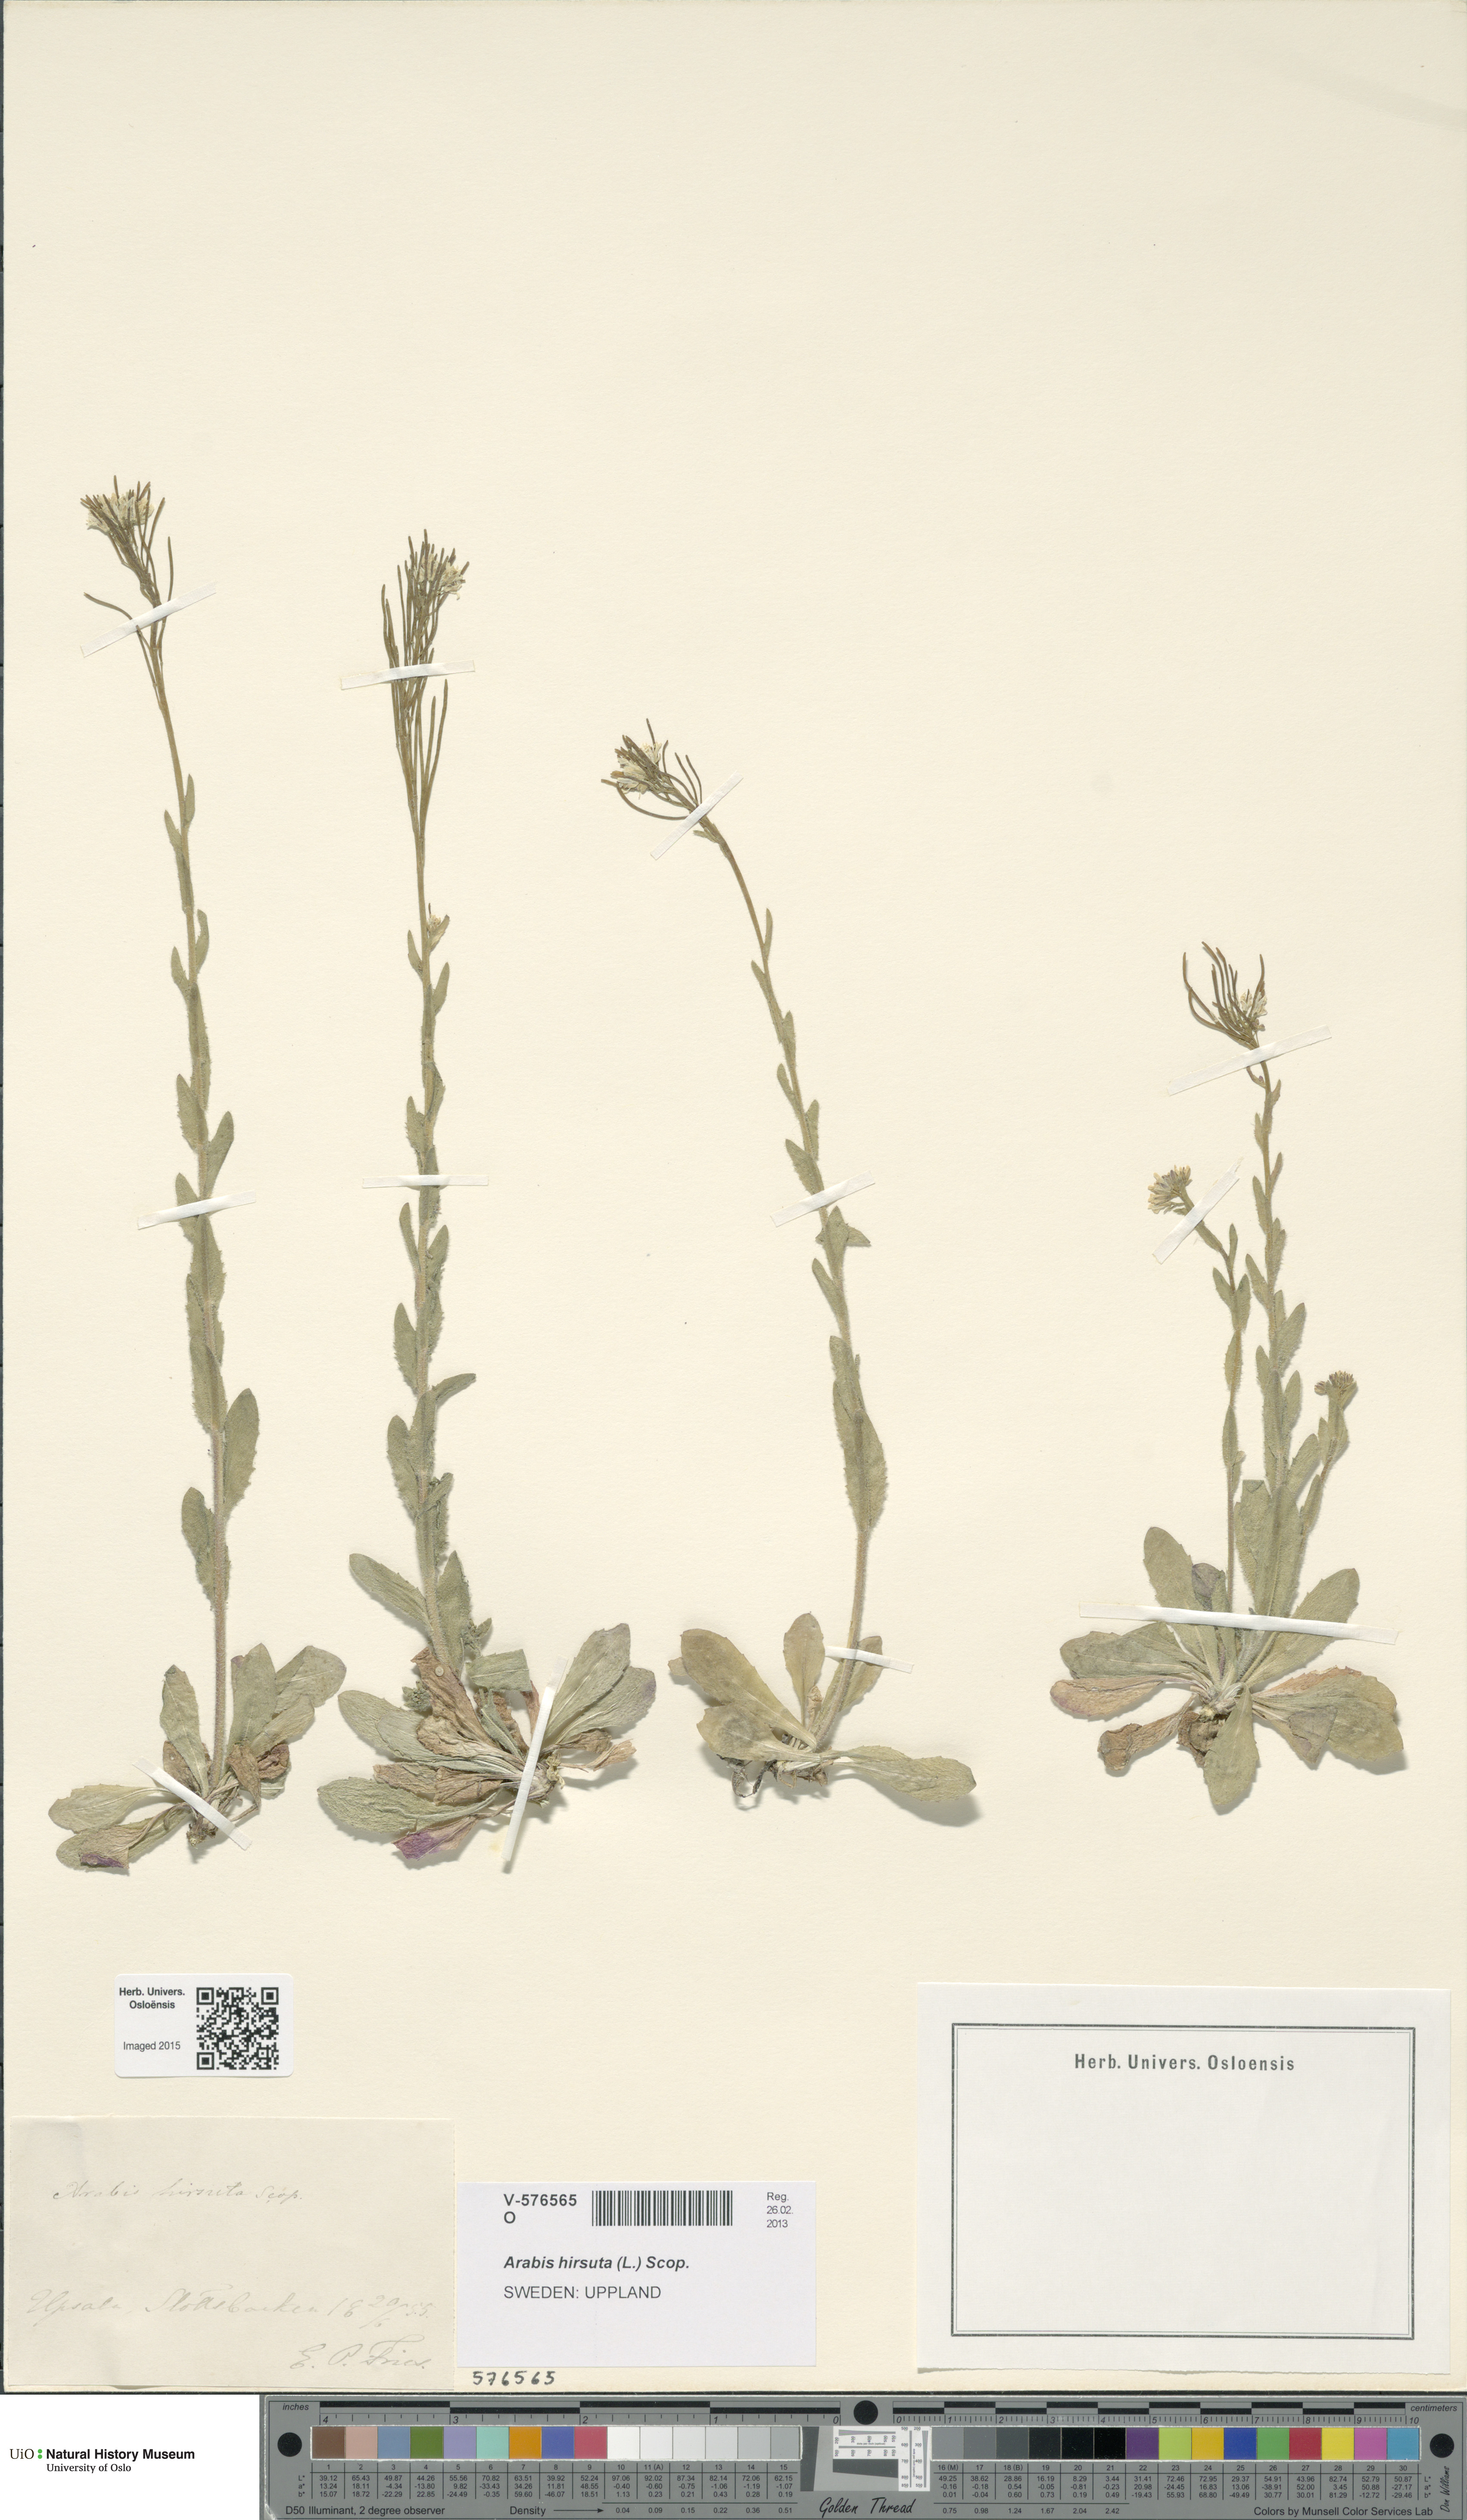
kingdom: Plantae
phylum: Tracheophyta
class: Magnoliopsida
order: Brassicales
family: Brassicaceae
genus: Arabis
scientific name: Arabis hirsuta
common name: Hairy rock-cress
